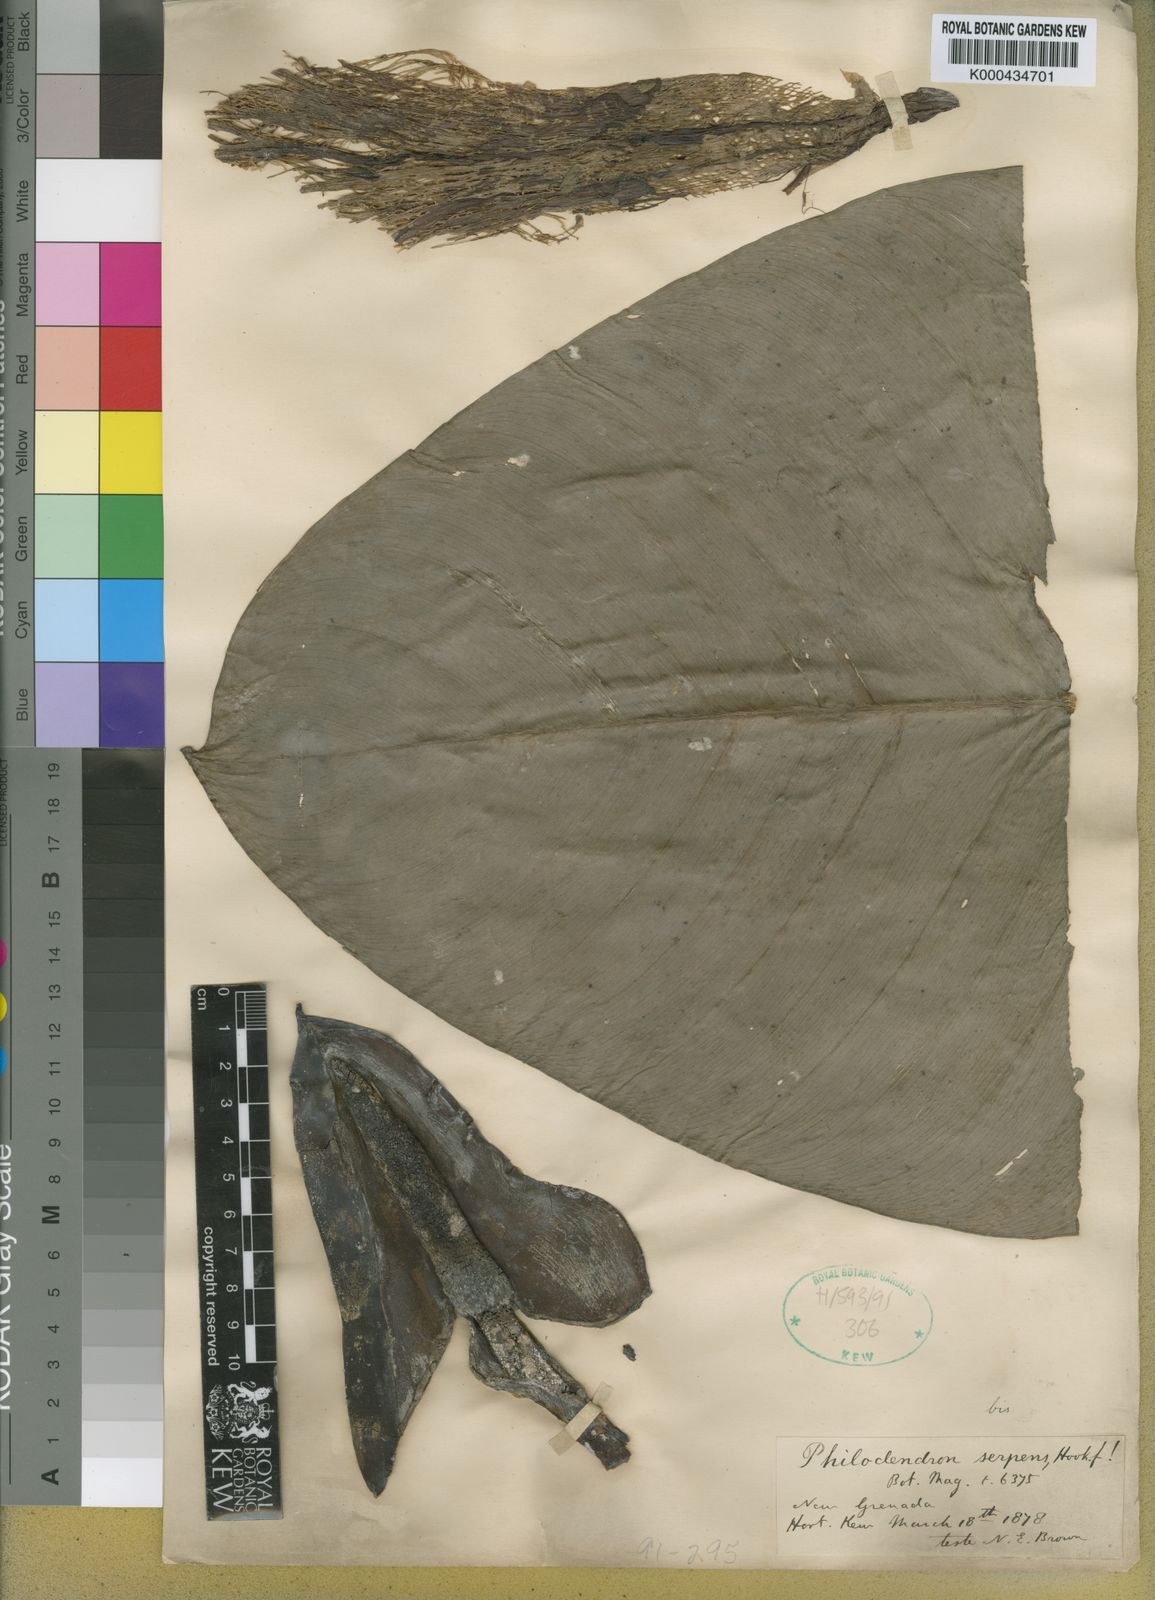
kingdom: Plantae
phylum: Tracheophyta
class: Liliopsida
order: Alismatales
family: Araceae
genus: Philodendron
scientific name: Philodendron serpens
